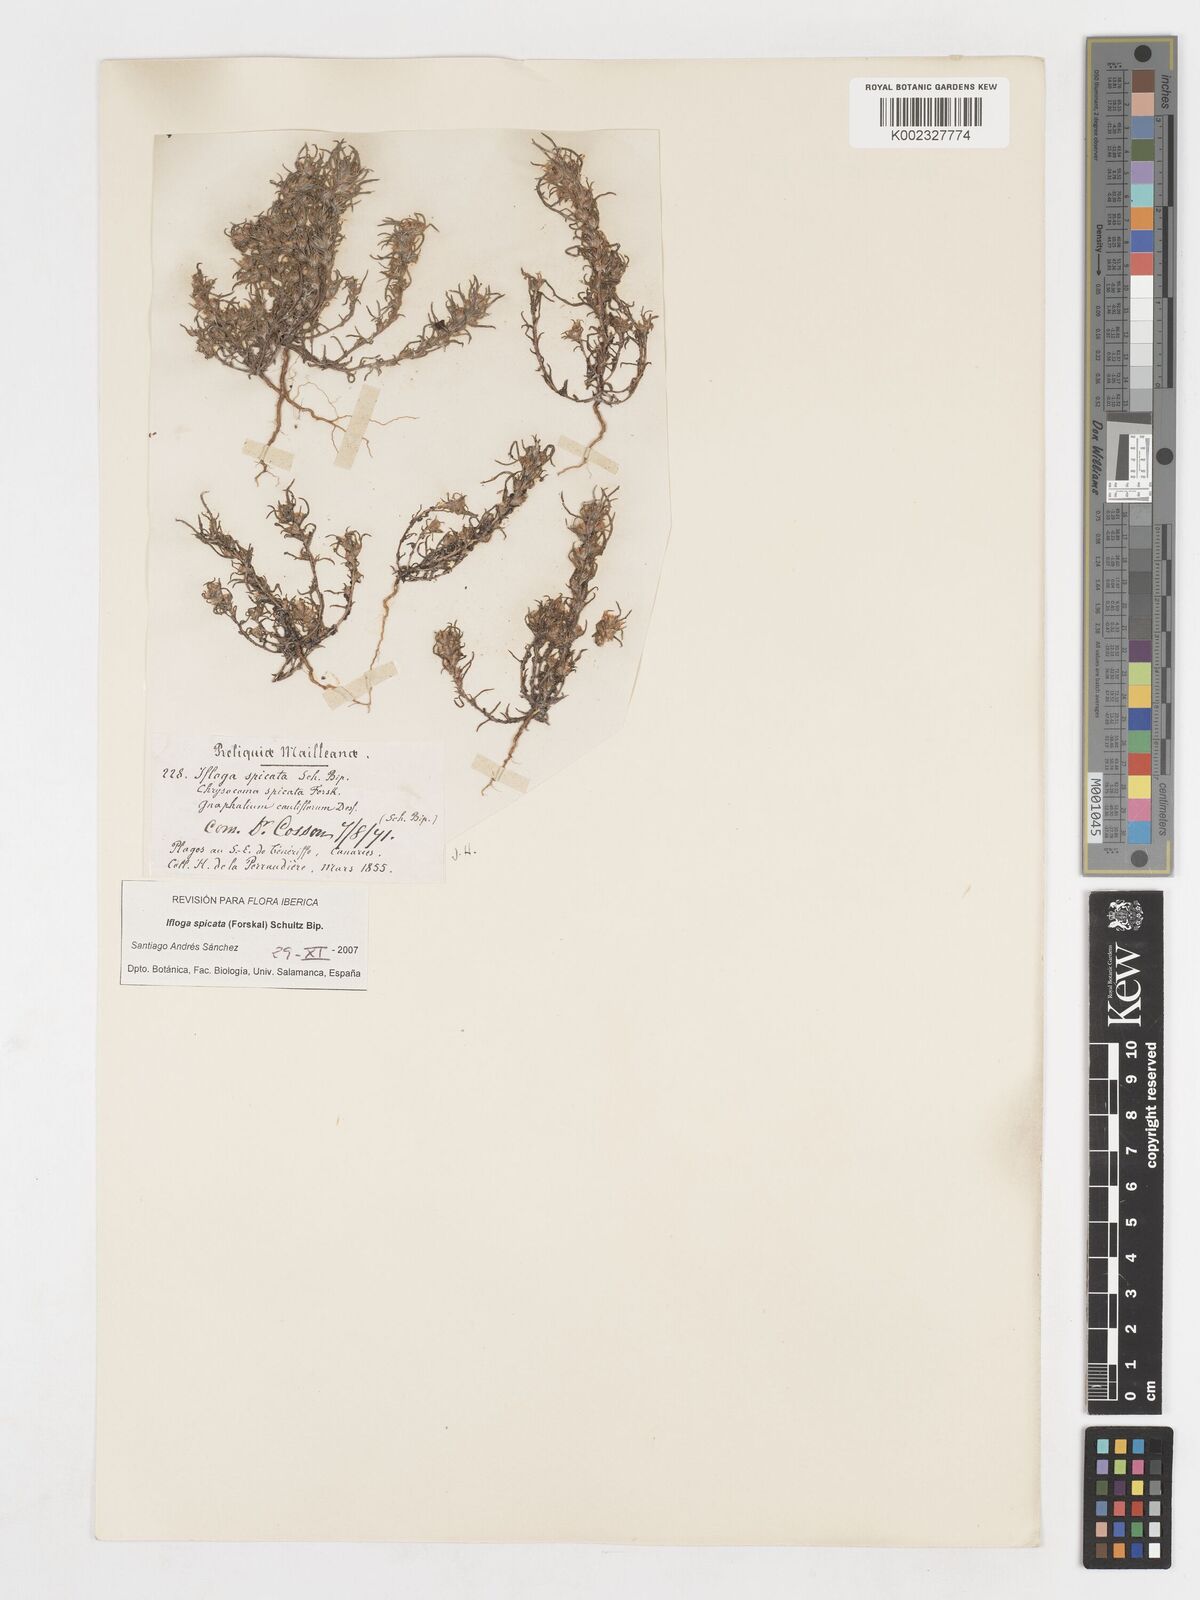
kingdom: Plantae
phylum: Tracheophyta
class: Magnoliopsida
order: Asterales
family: Asteraceae
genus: Ifloga
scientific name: Ifloga spicata
